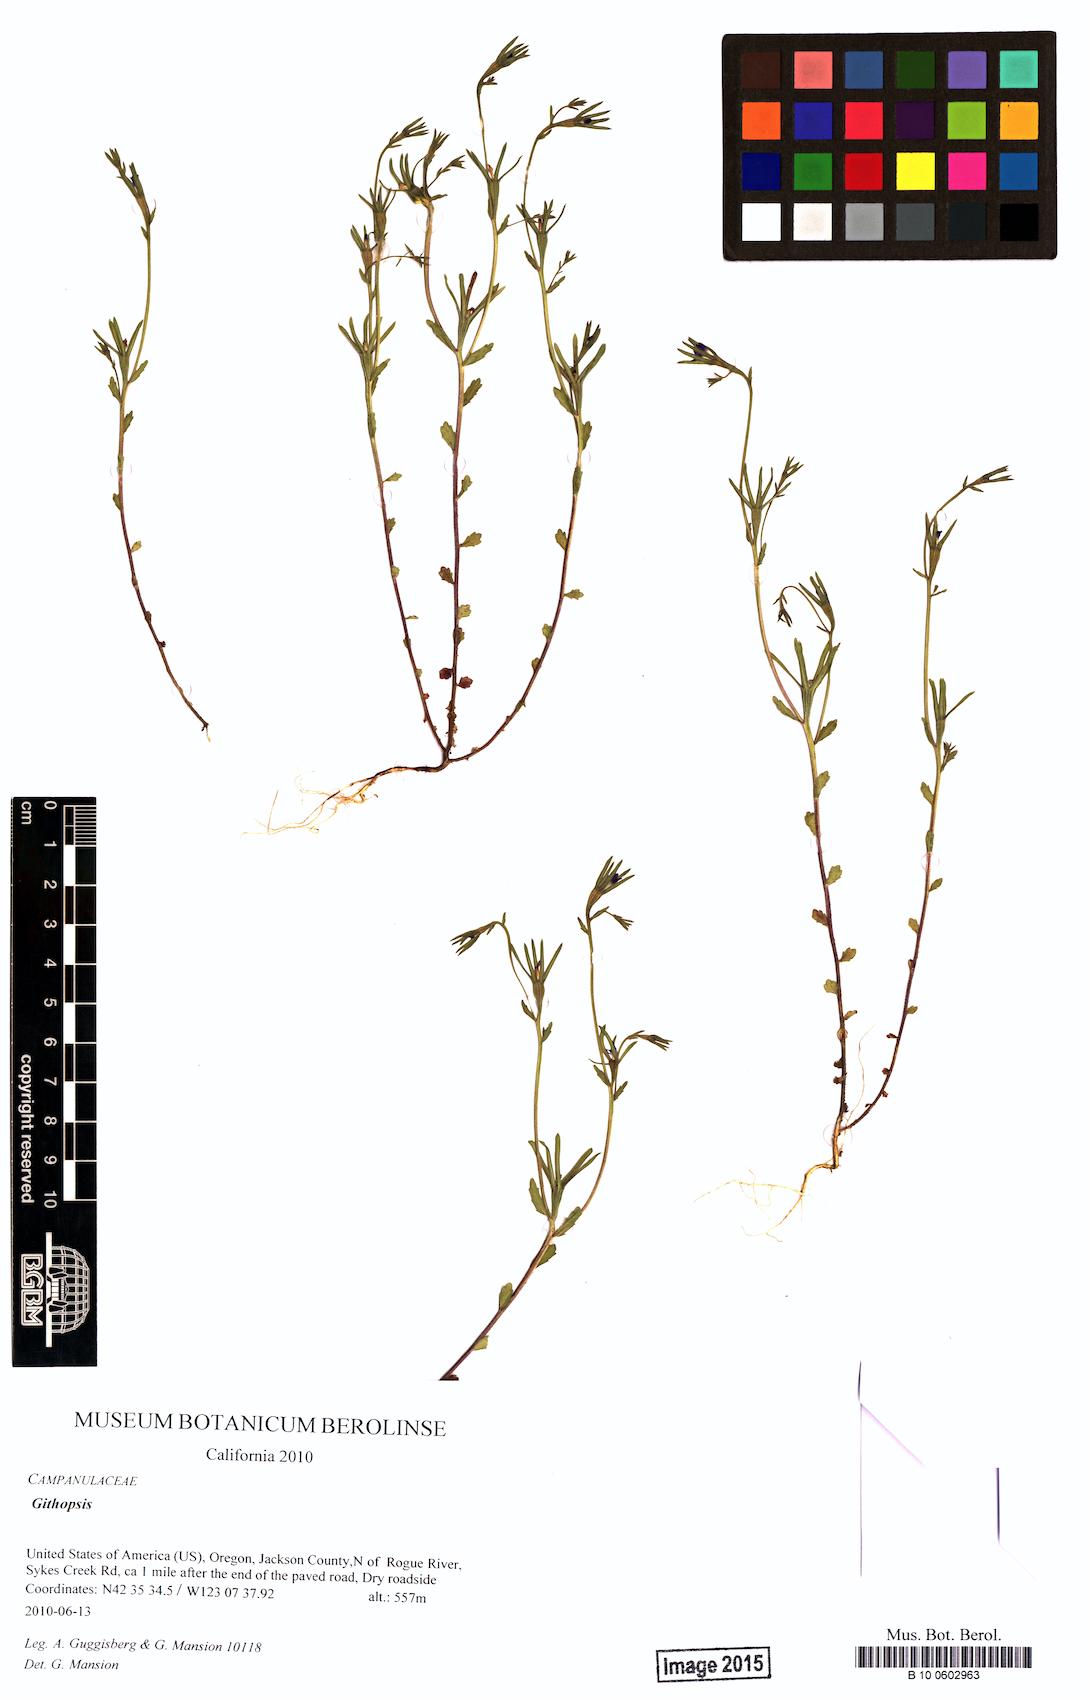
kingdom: Plantae
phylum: Tracheophyta
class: Magnoliopsida
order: Asterales
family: Campanulaceae
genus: Githopsis
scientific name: Githopsis
